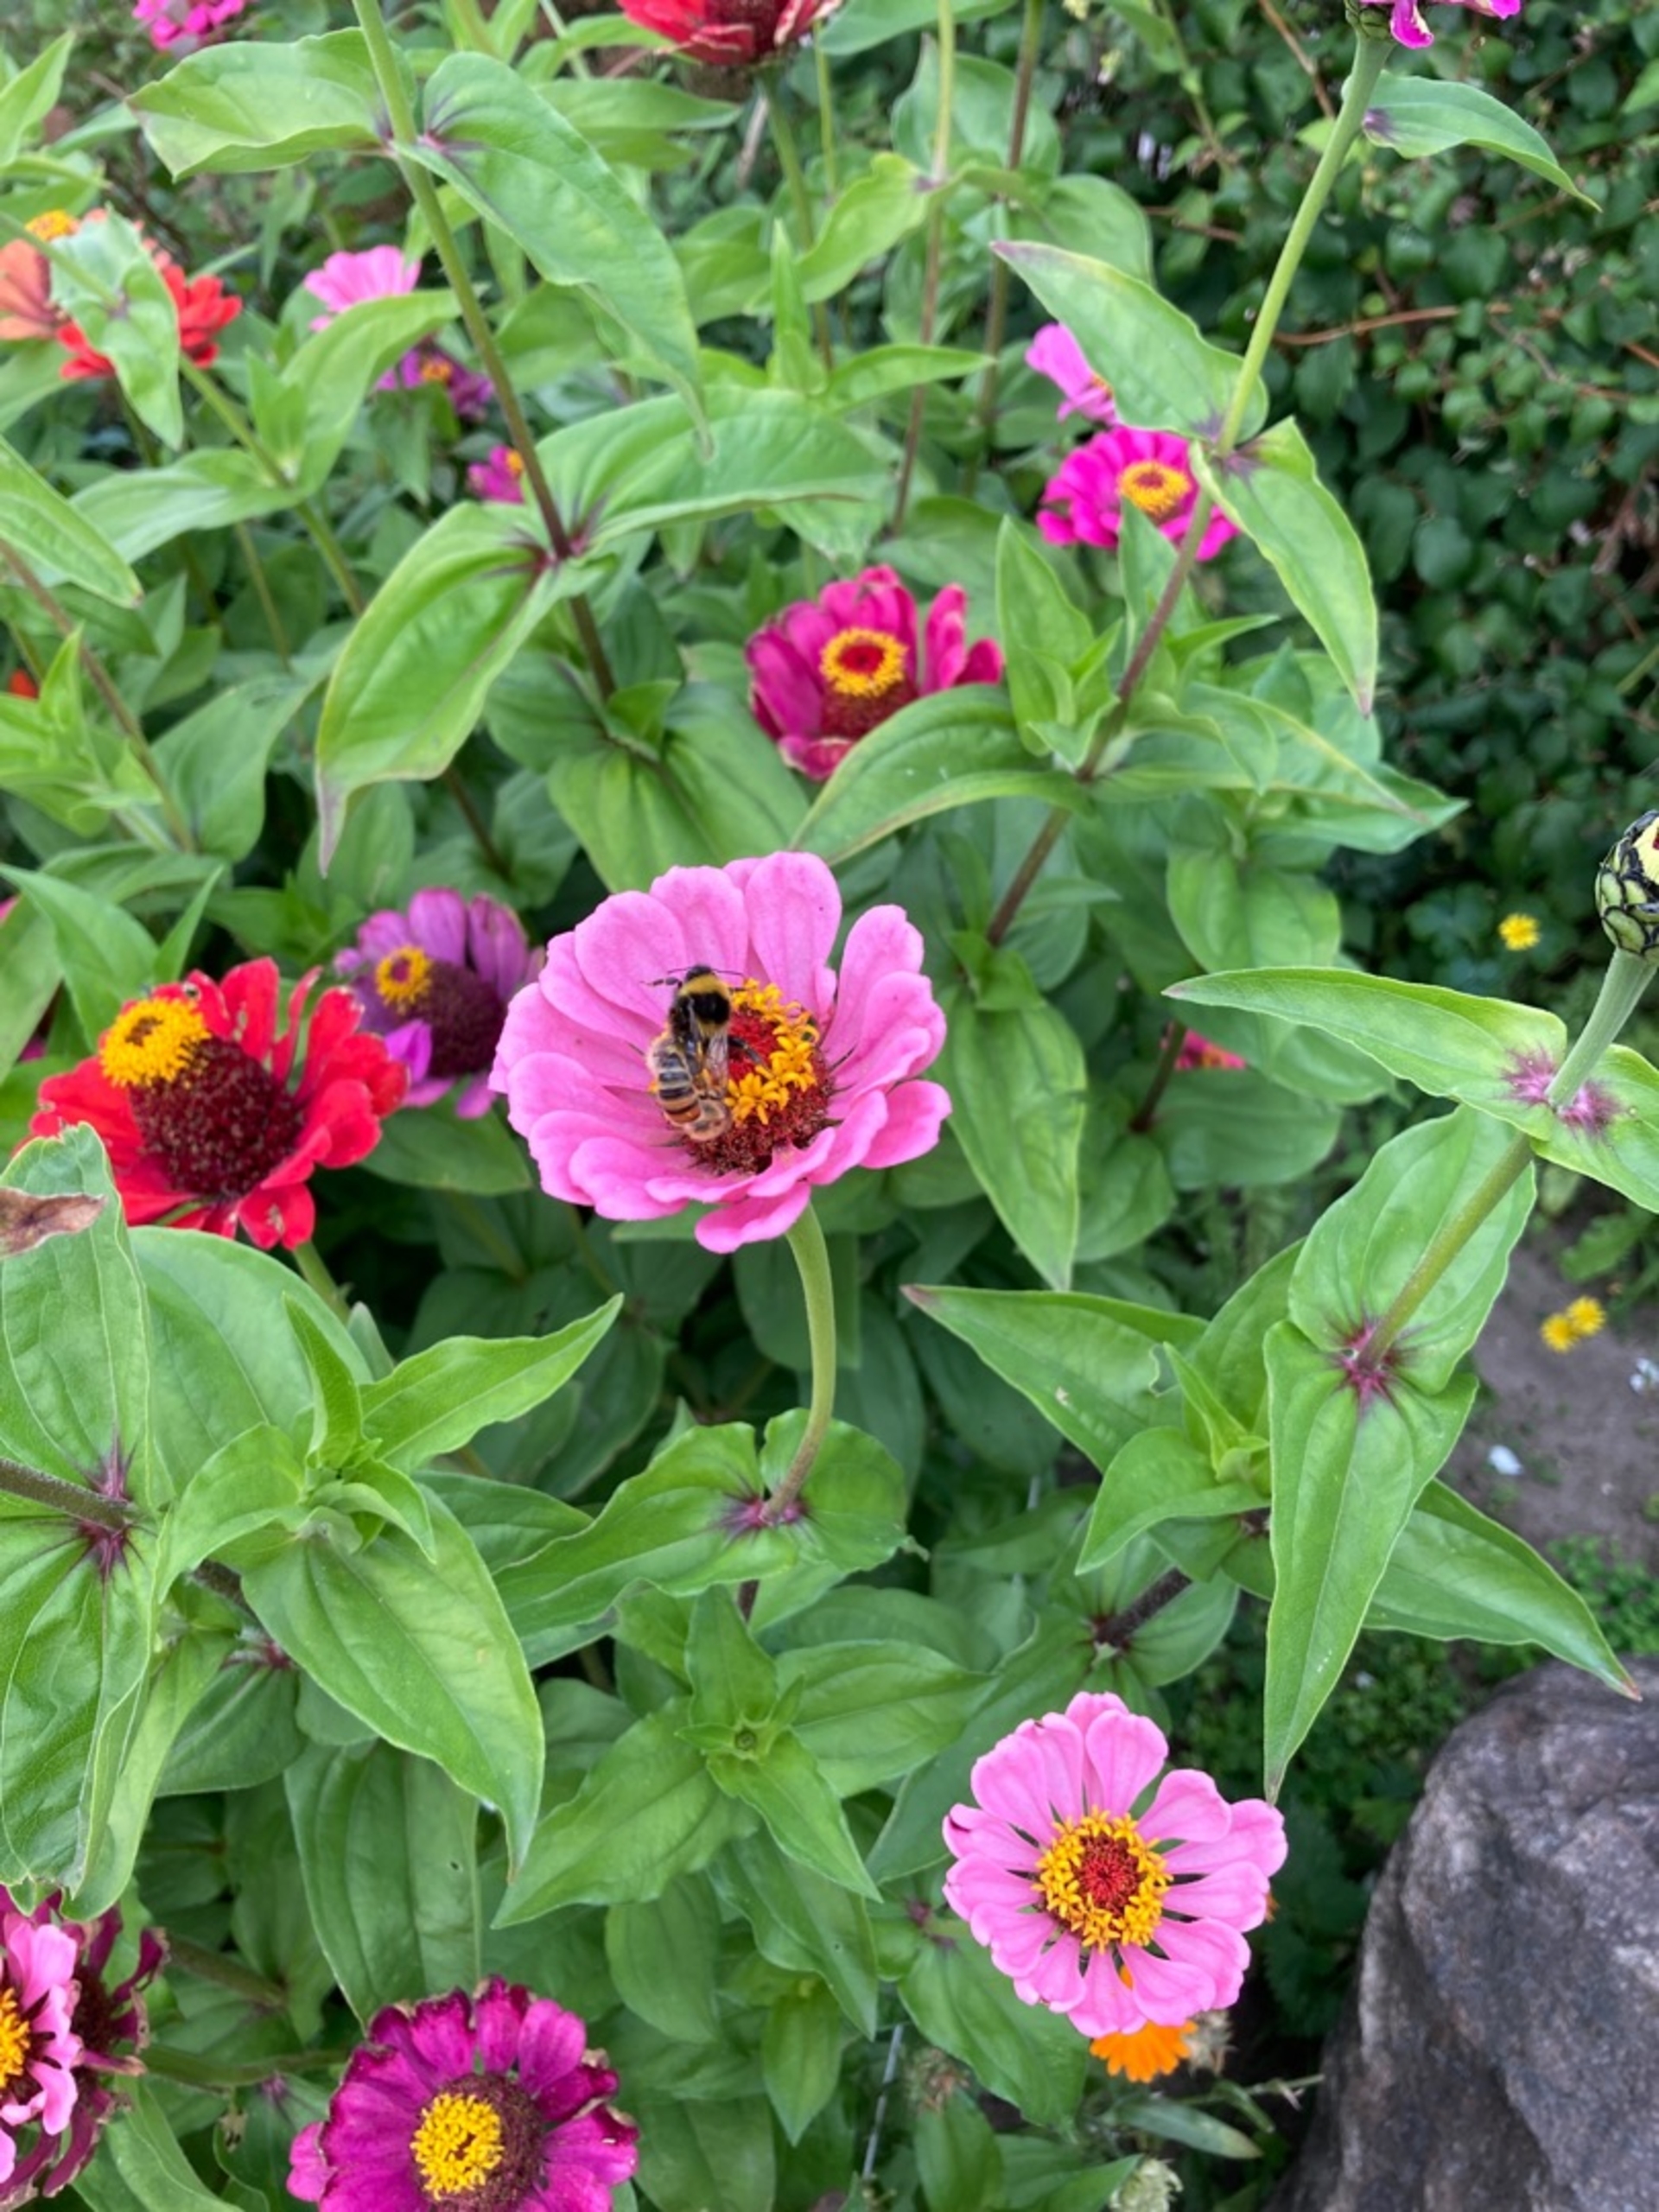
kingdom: Animalia
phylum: Arthropoda
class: Insecta
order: Hymenoptera
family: Apidae
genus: Apis
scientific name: Apis mellifera
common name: Honningbi
